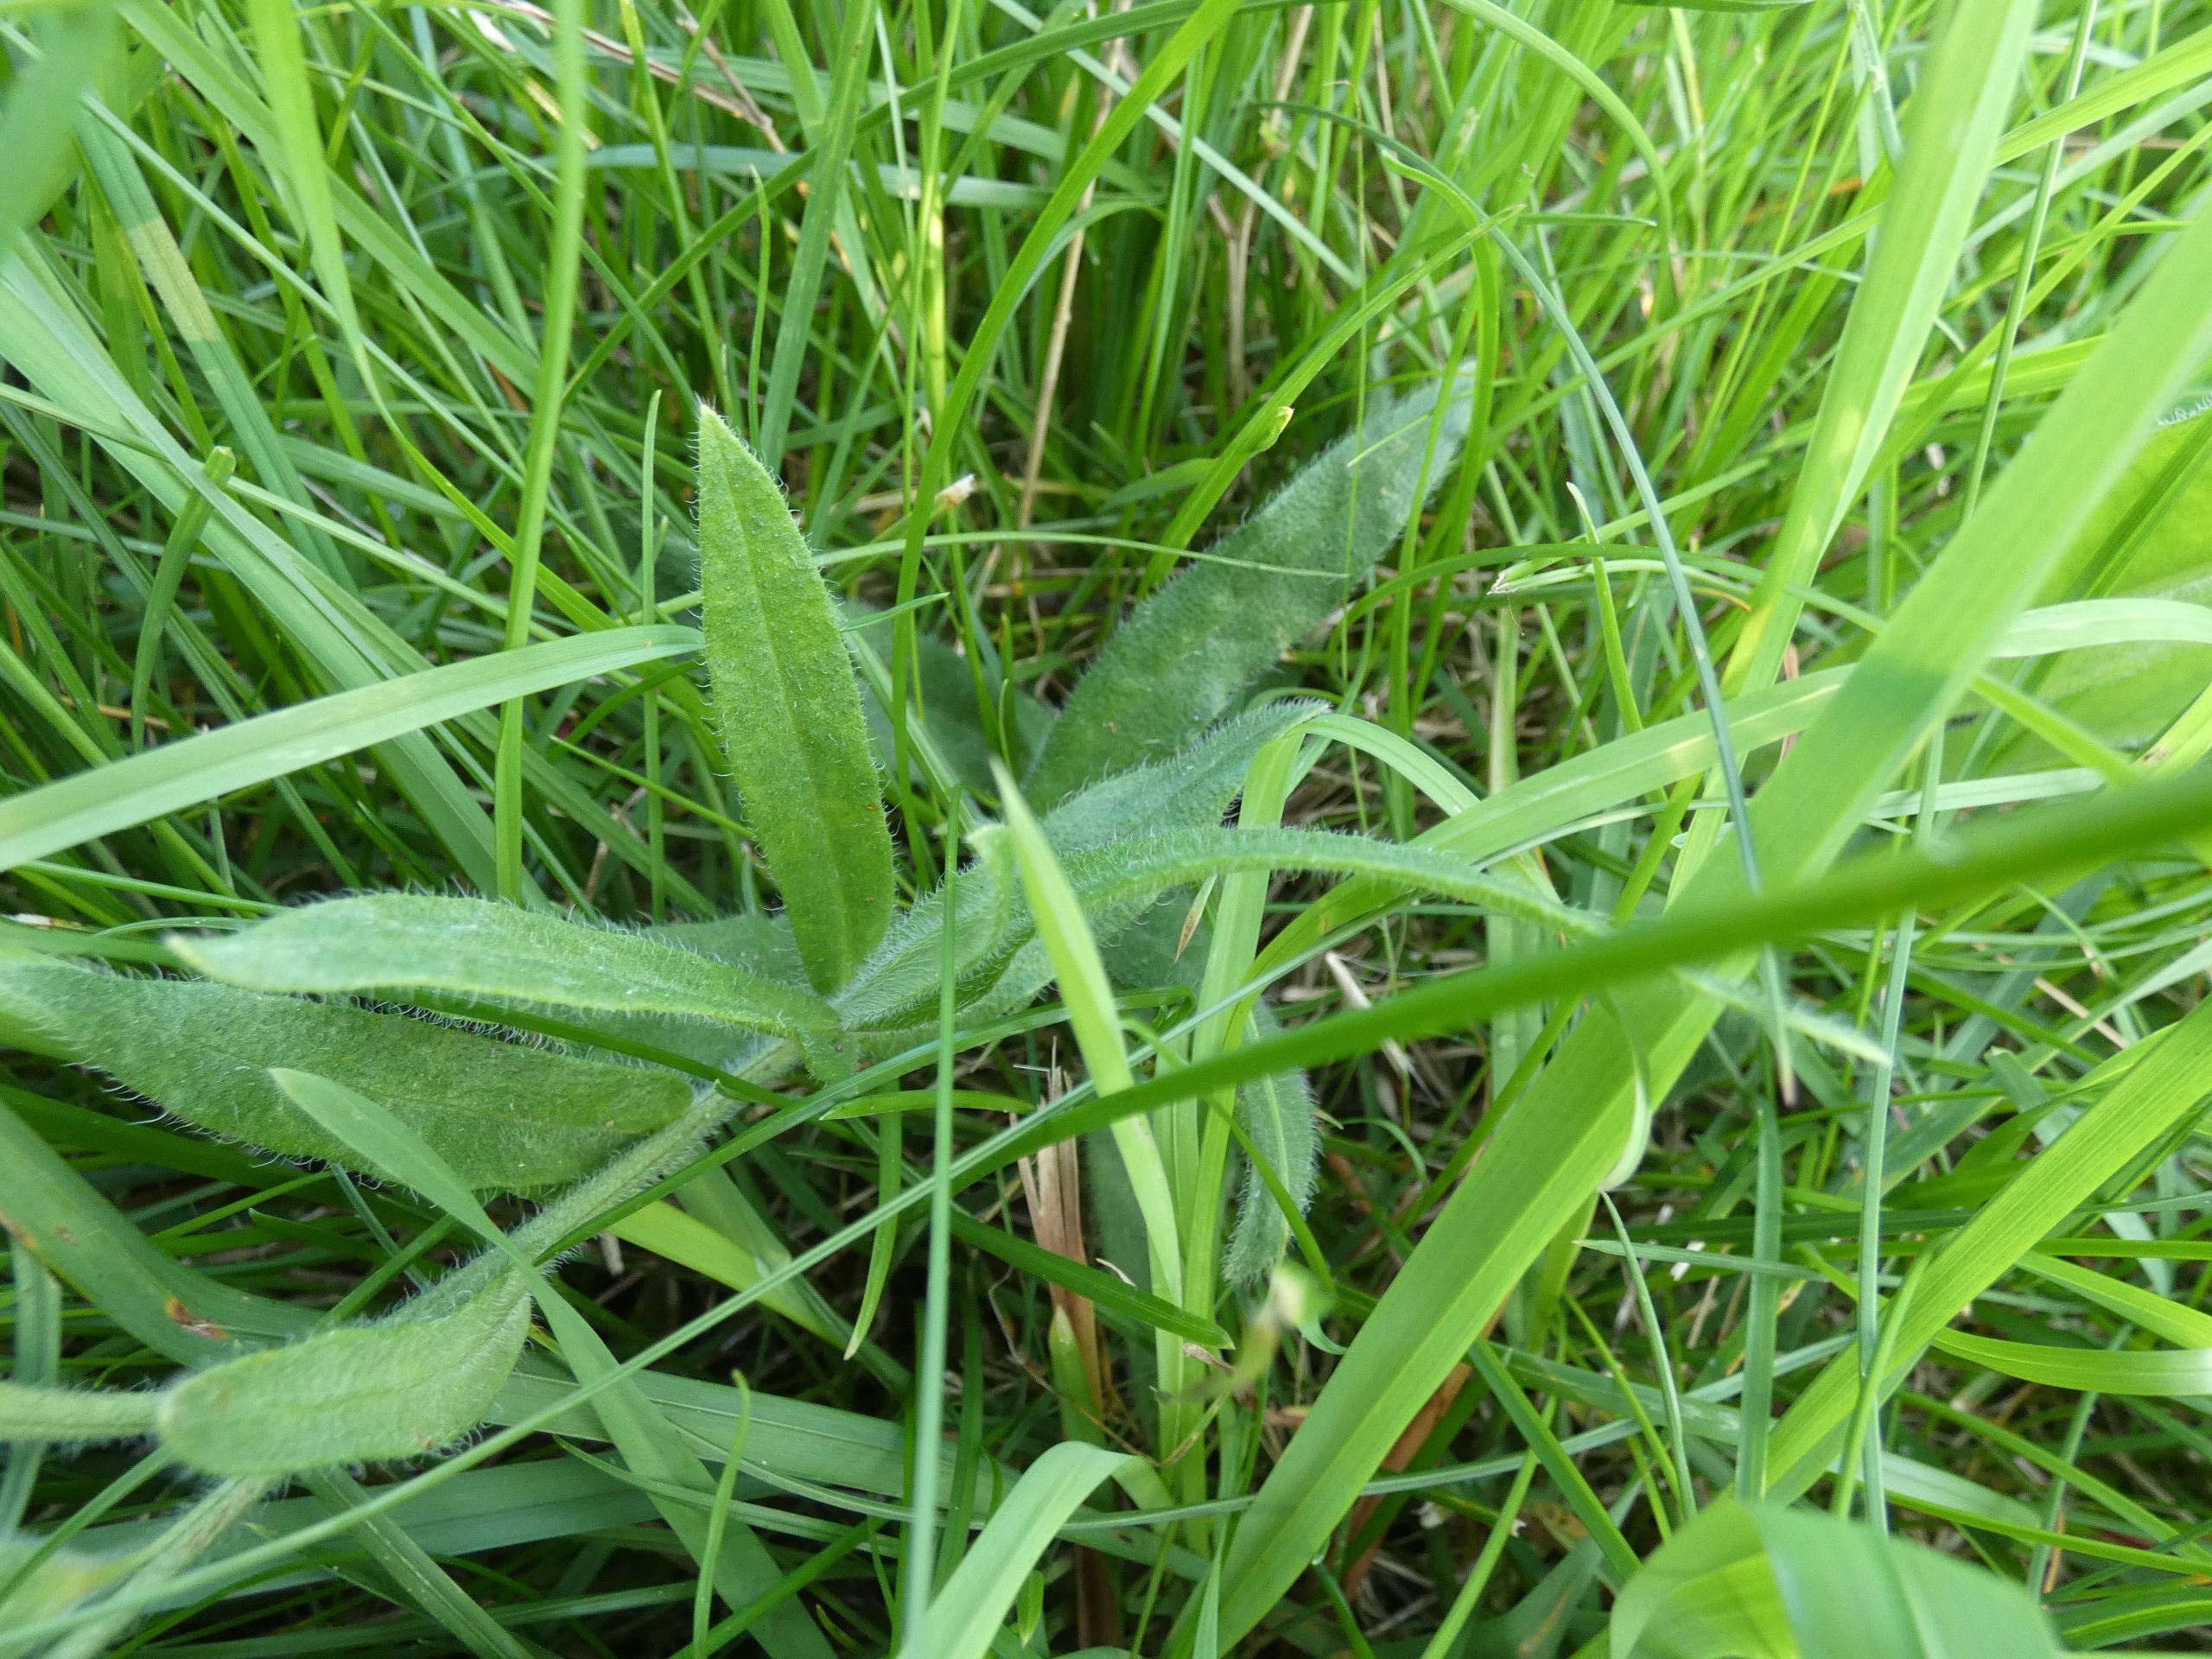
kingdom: Plantae
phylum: Tracheophyta
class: Magnoliopsida
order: Boraginales
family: Boraginaceae
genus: Anchusa
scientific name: Anchusa officinalis
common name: Læge-oksetunge
